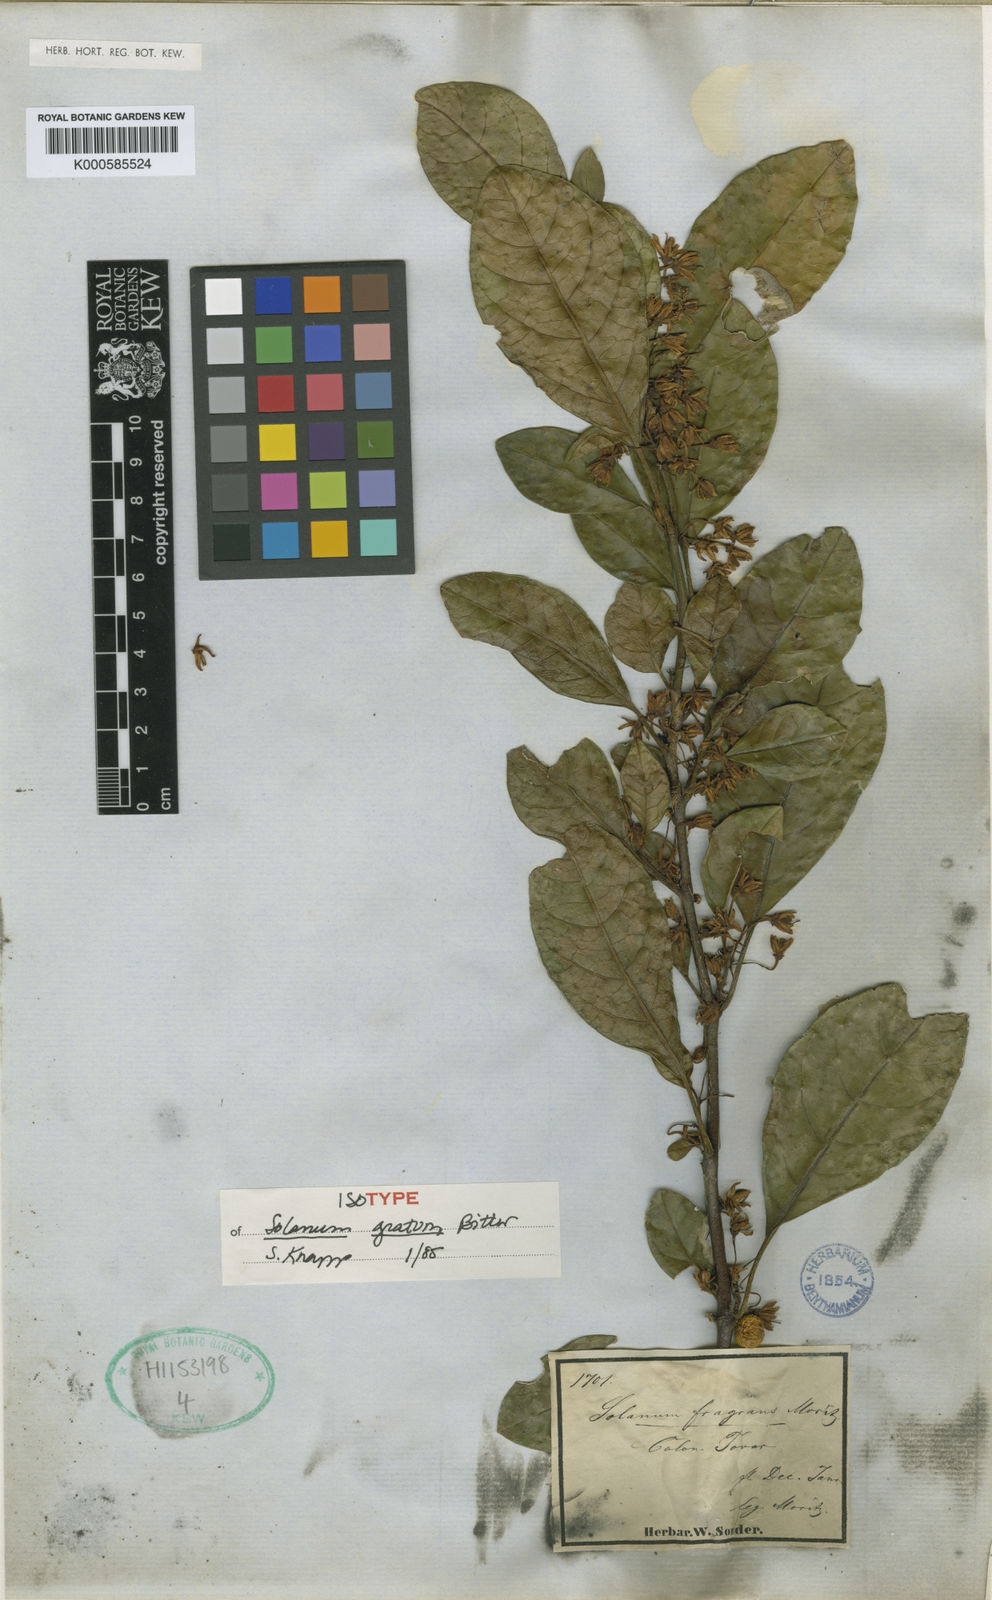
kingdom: Plantae
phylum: Tracheophyta
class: Magnoliopsida
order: Solanales
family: Solanaceae
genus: Solanum
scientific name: Solanum gratum
